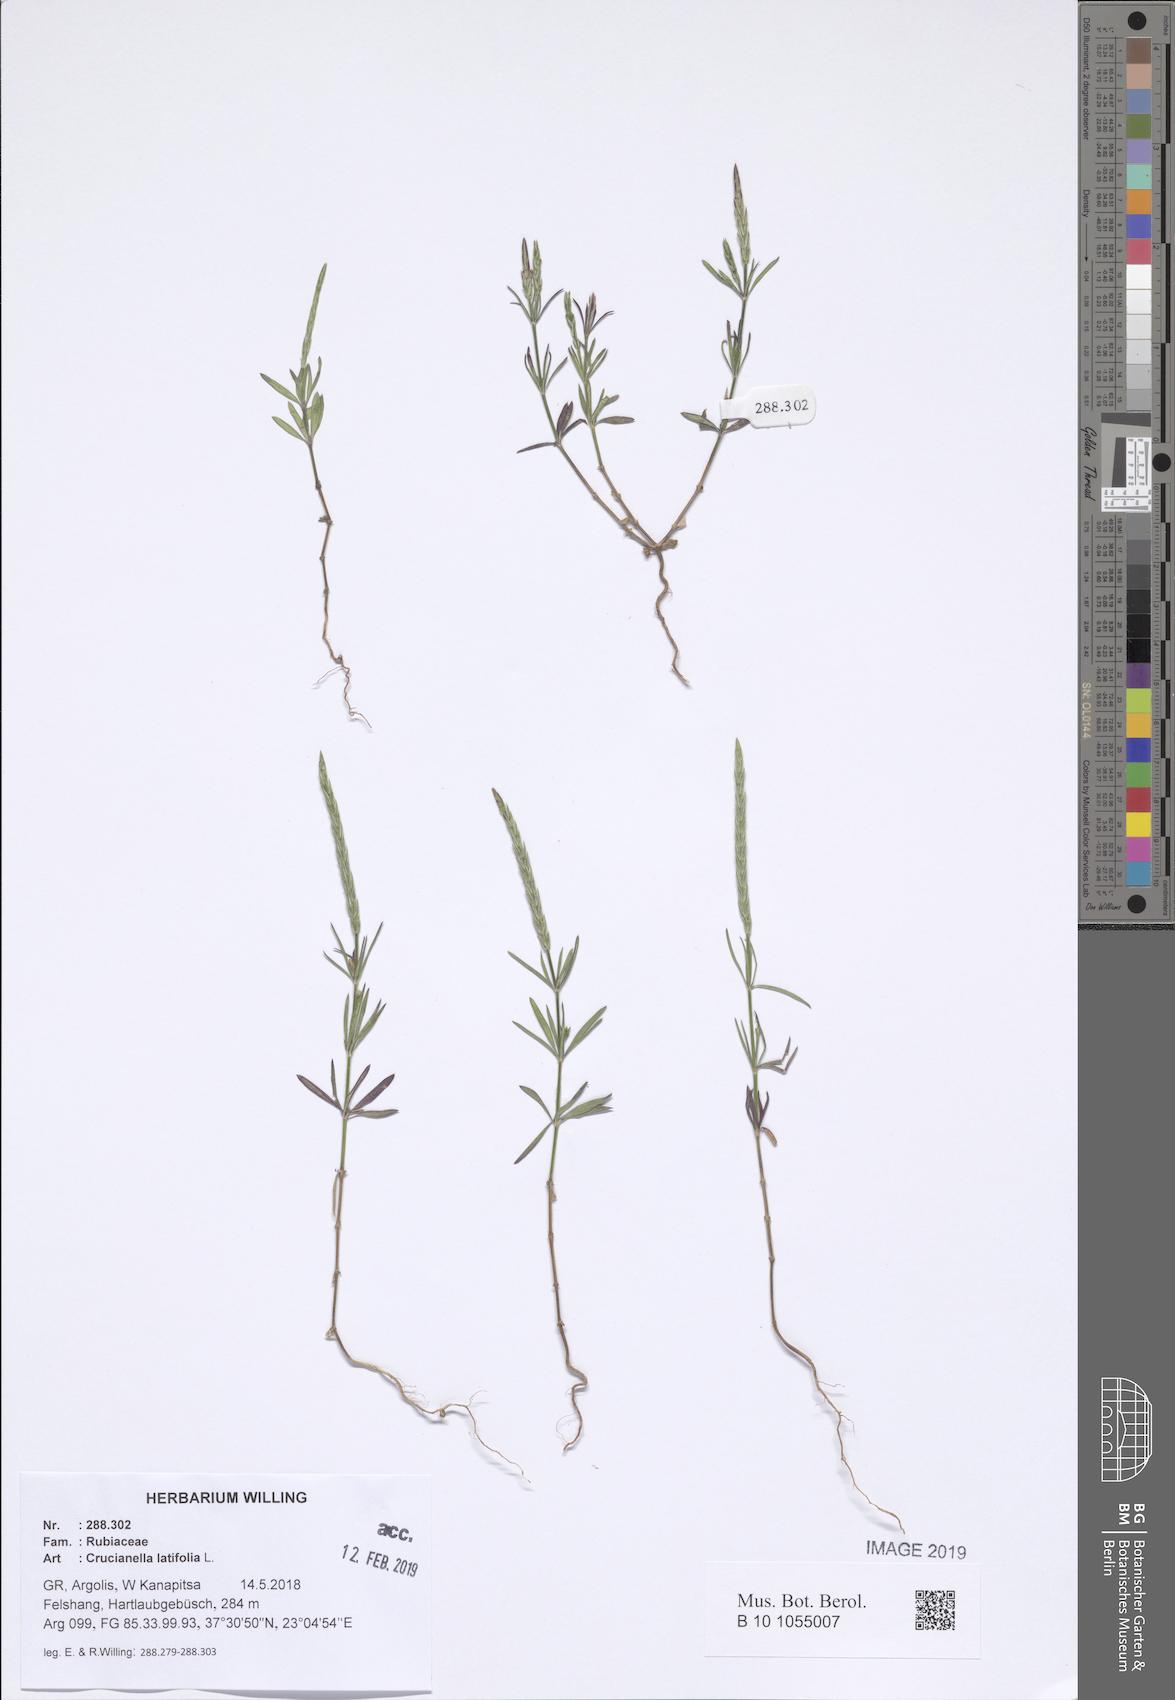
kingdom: Plantae
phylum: Tracheophyta
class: Magnoliopsida
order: Gentianales
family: Rubiaceae
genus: Crucianella
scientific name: Crucianella latifolia
